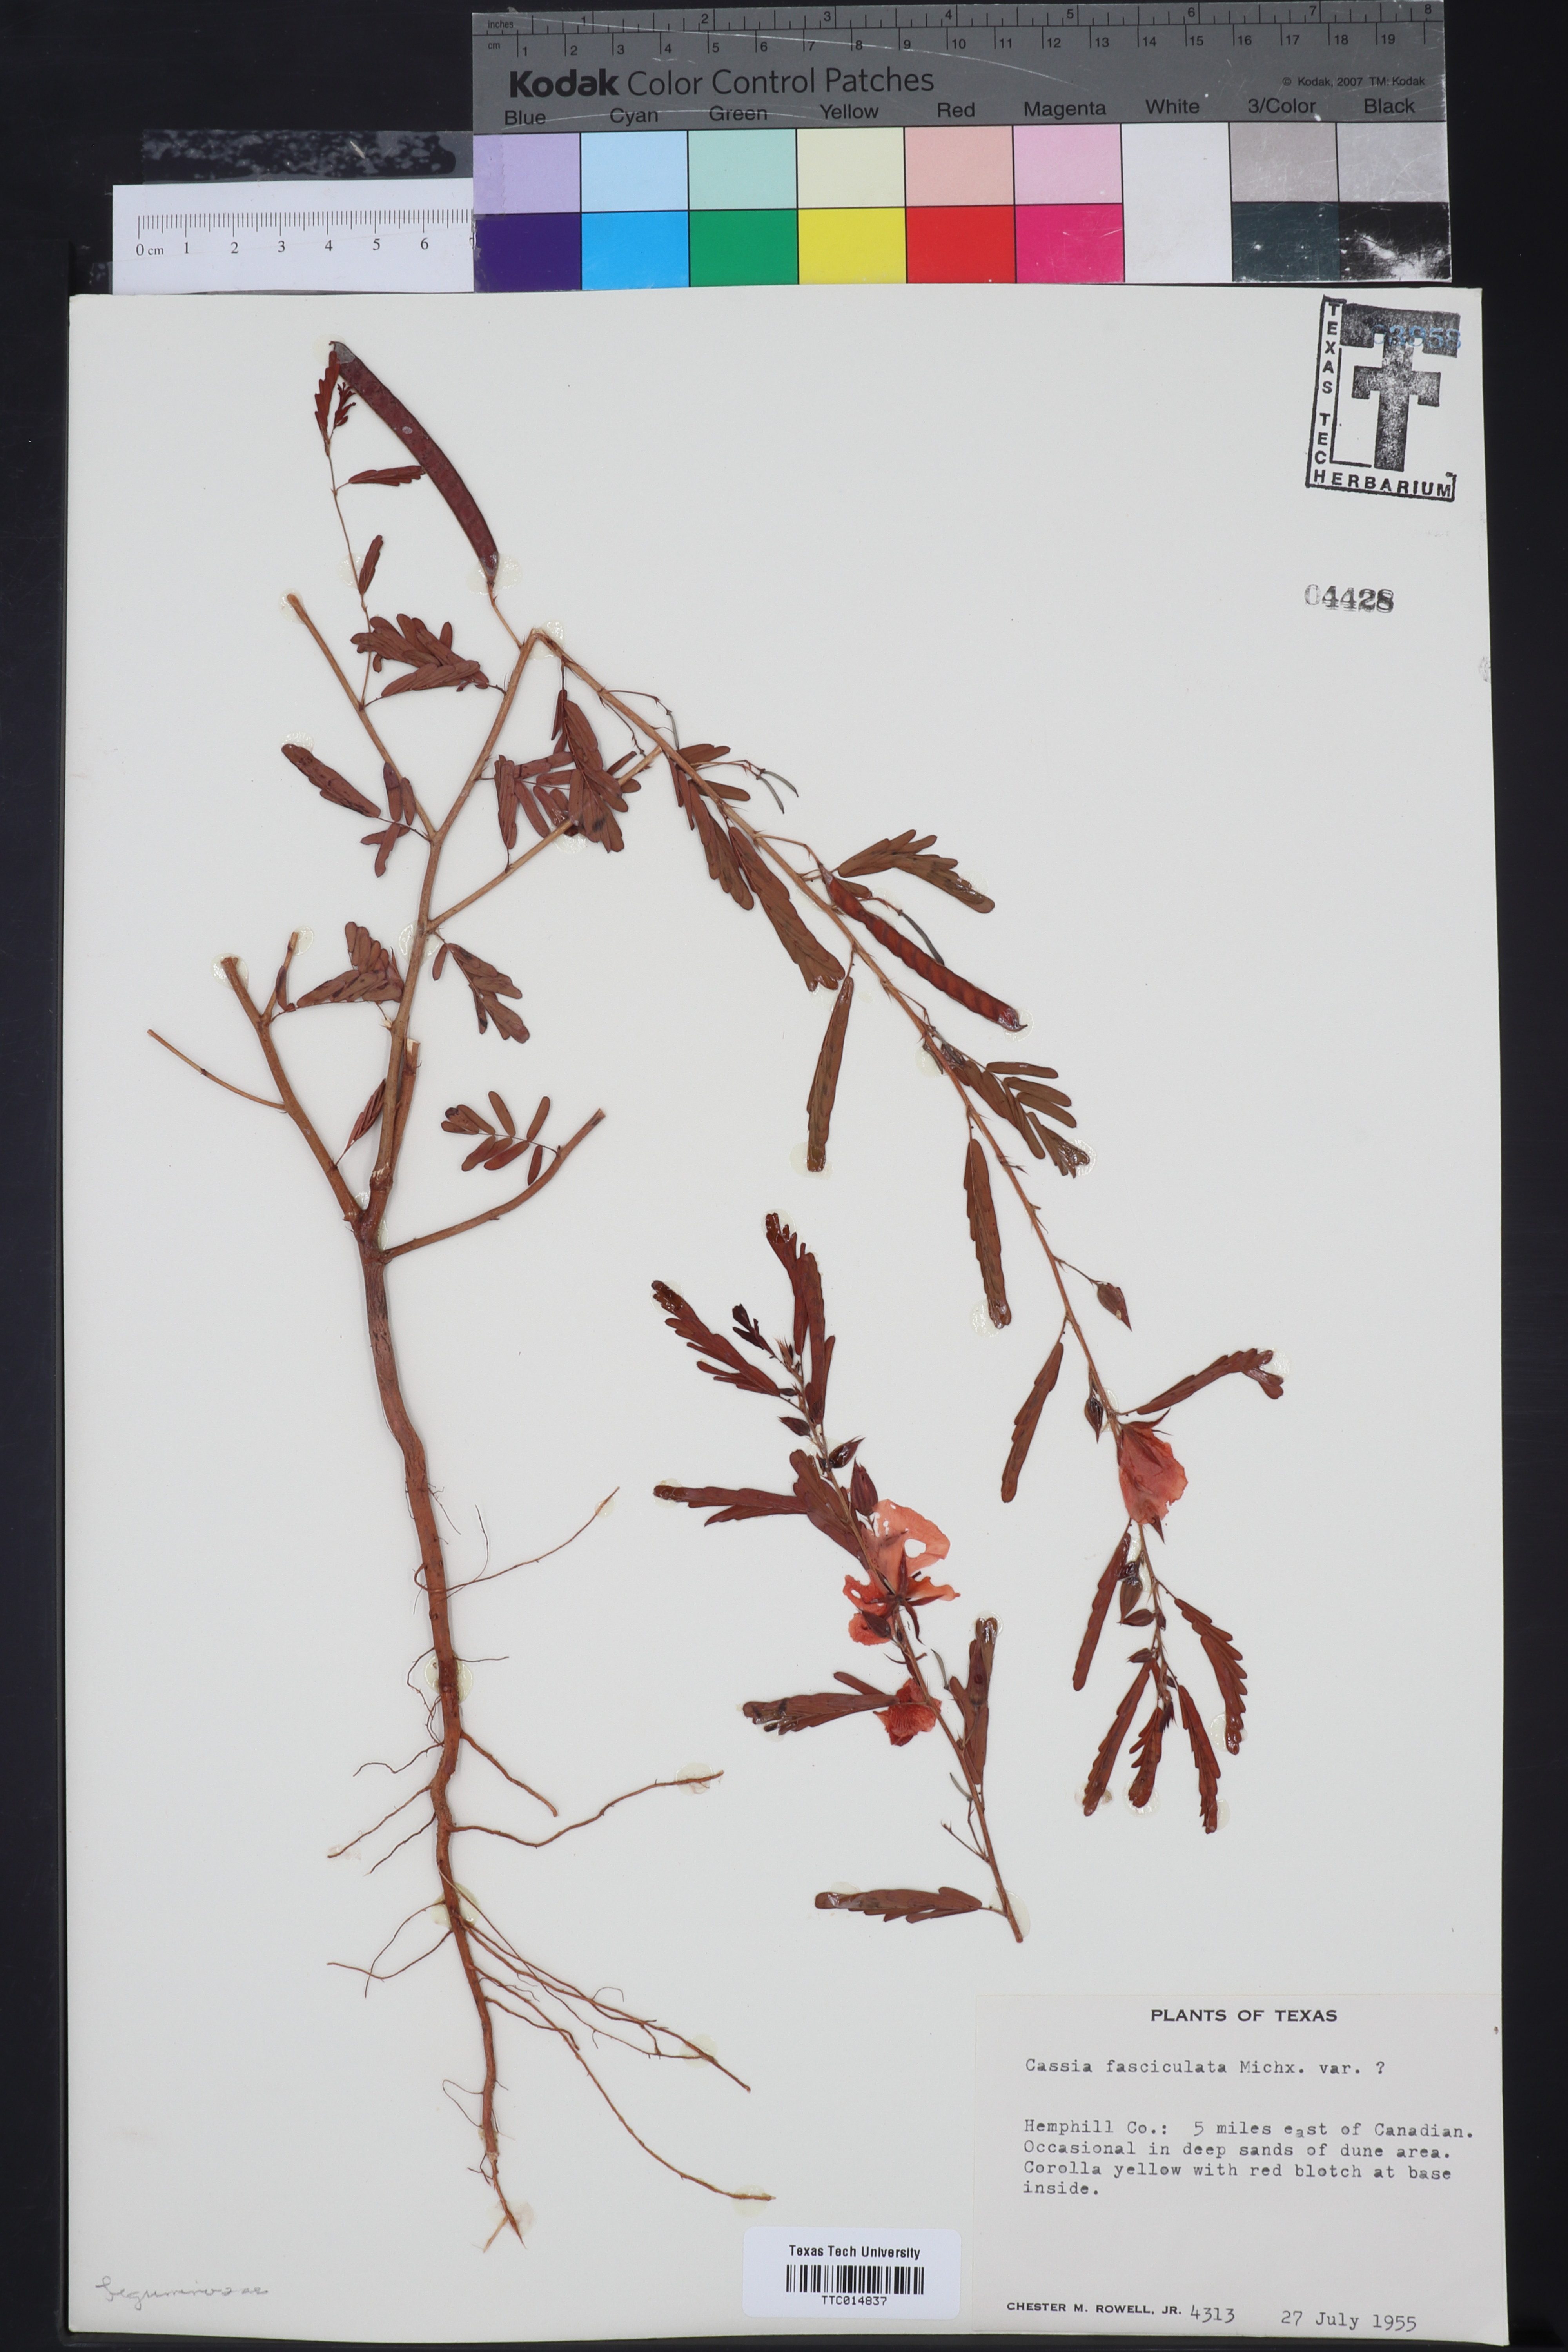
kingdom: Plantae
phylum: Tracheophyta
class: Magnoliopsida
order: Fabales
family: Fabaceae
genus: Chamaecrista
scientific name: Chamaecrista fasciculata
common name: Golden cassia
